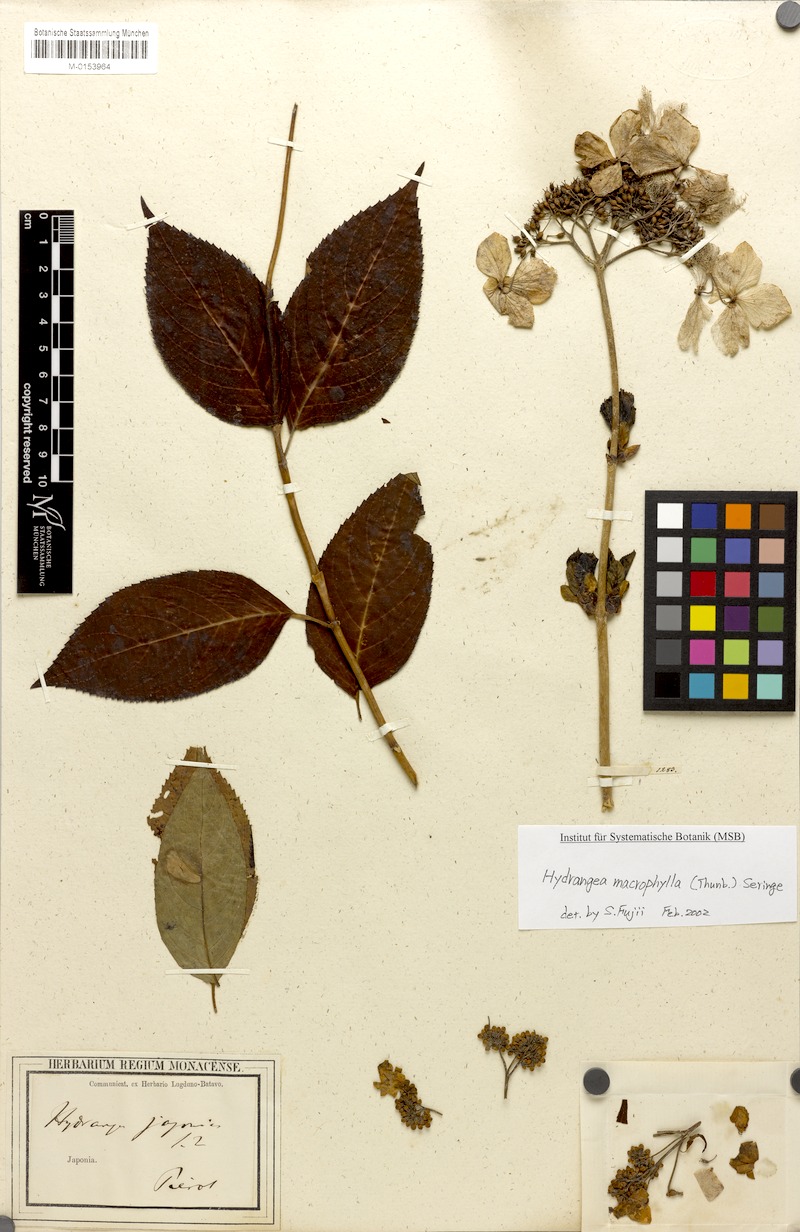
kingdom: Plantae
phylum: Tracheophyta
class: Magnoliopsida
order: Cornales
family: Hydrangeaceae
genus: Hydrangea
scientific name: Hydrangea serrata
